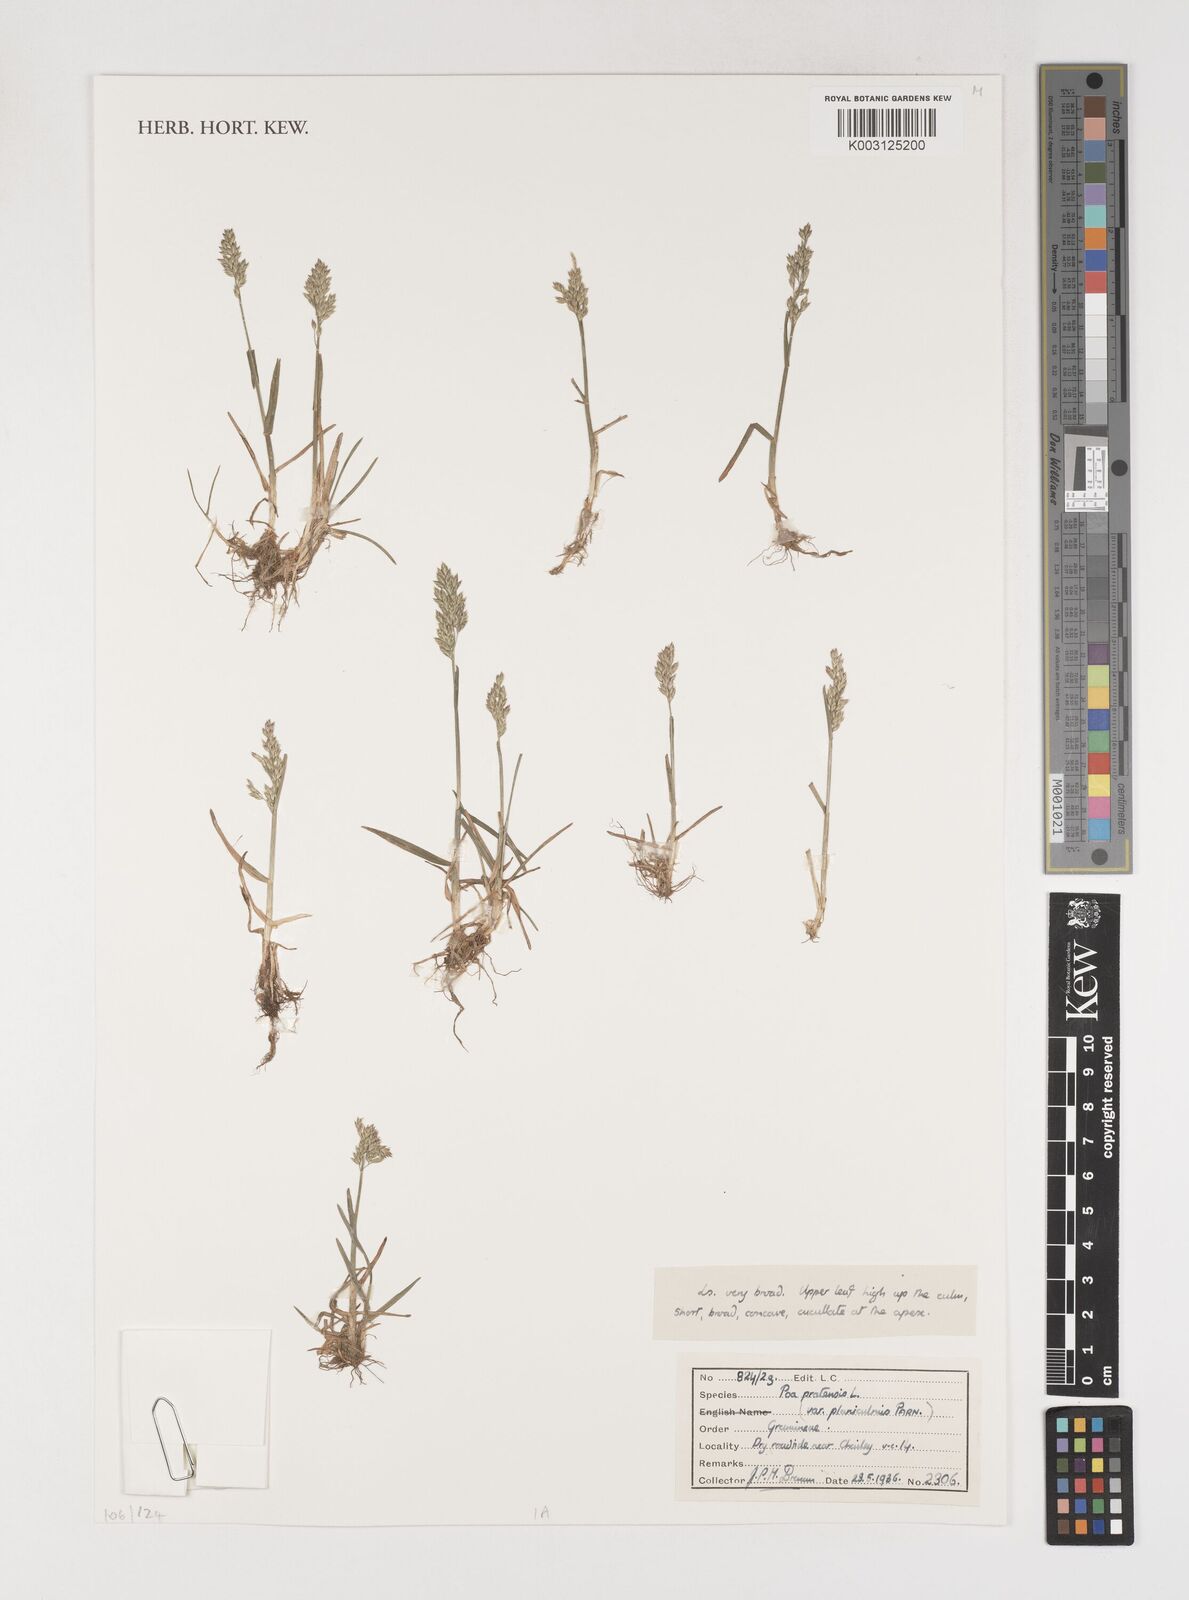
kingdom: Plantae
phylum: Tracheophyta
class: Liliopsida
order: Poales
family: Poaceae
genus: Poa
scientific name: Poa pratensis
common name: Kentucky bluegrass
